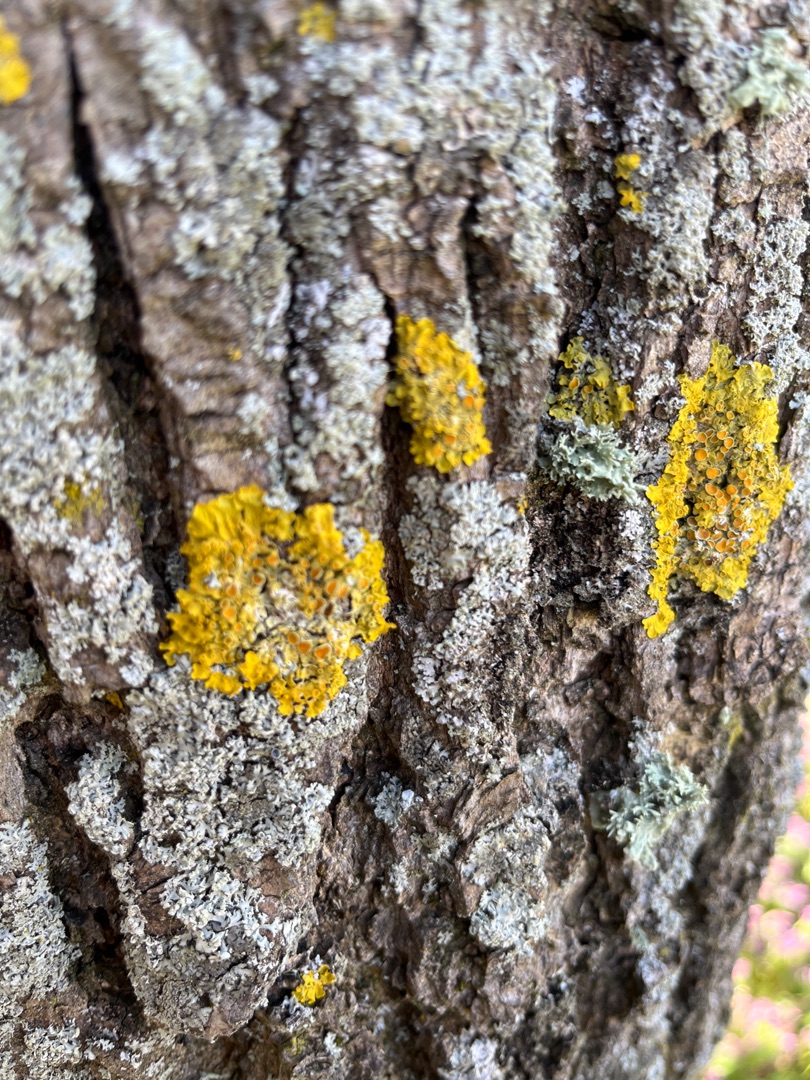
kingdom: Fungi
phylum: Ascomycota
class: Lecanoromycetes
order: Teloschistales
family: Teloschistaceae
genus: Xanthoria
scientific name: Xanthoria parietina
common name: Almindelig væggelav
